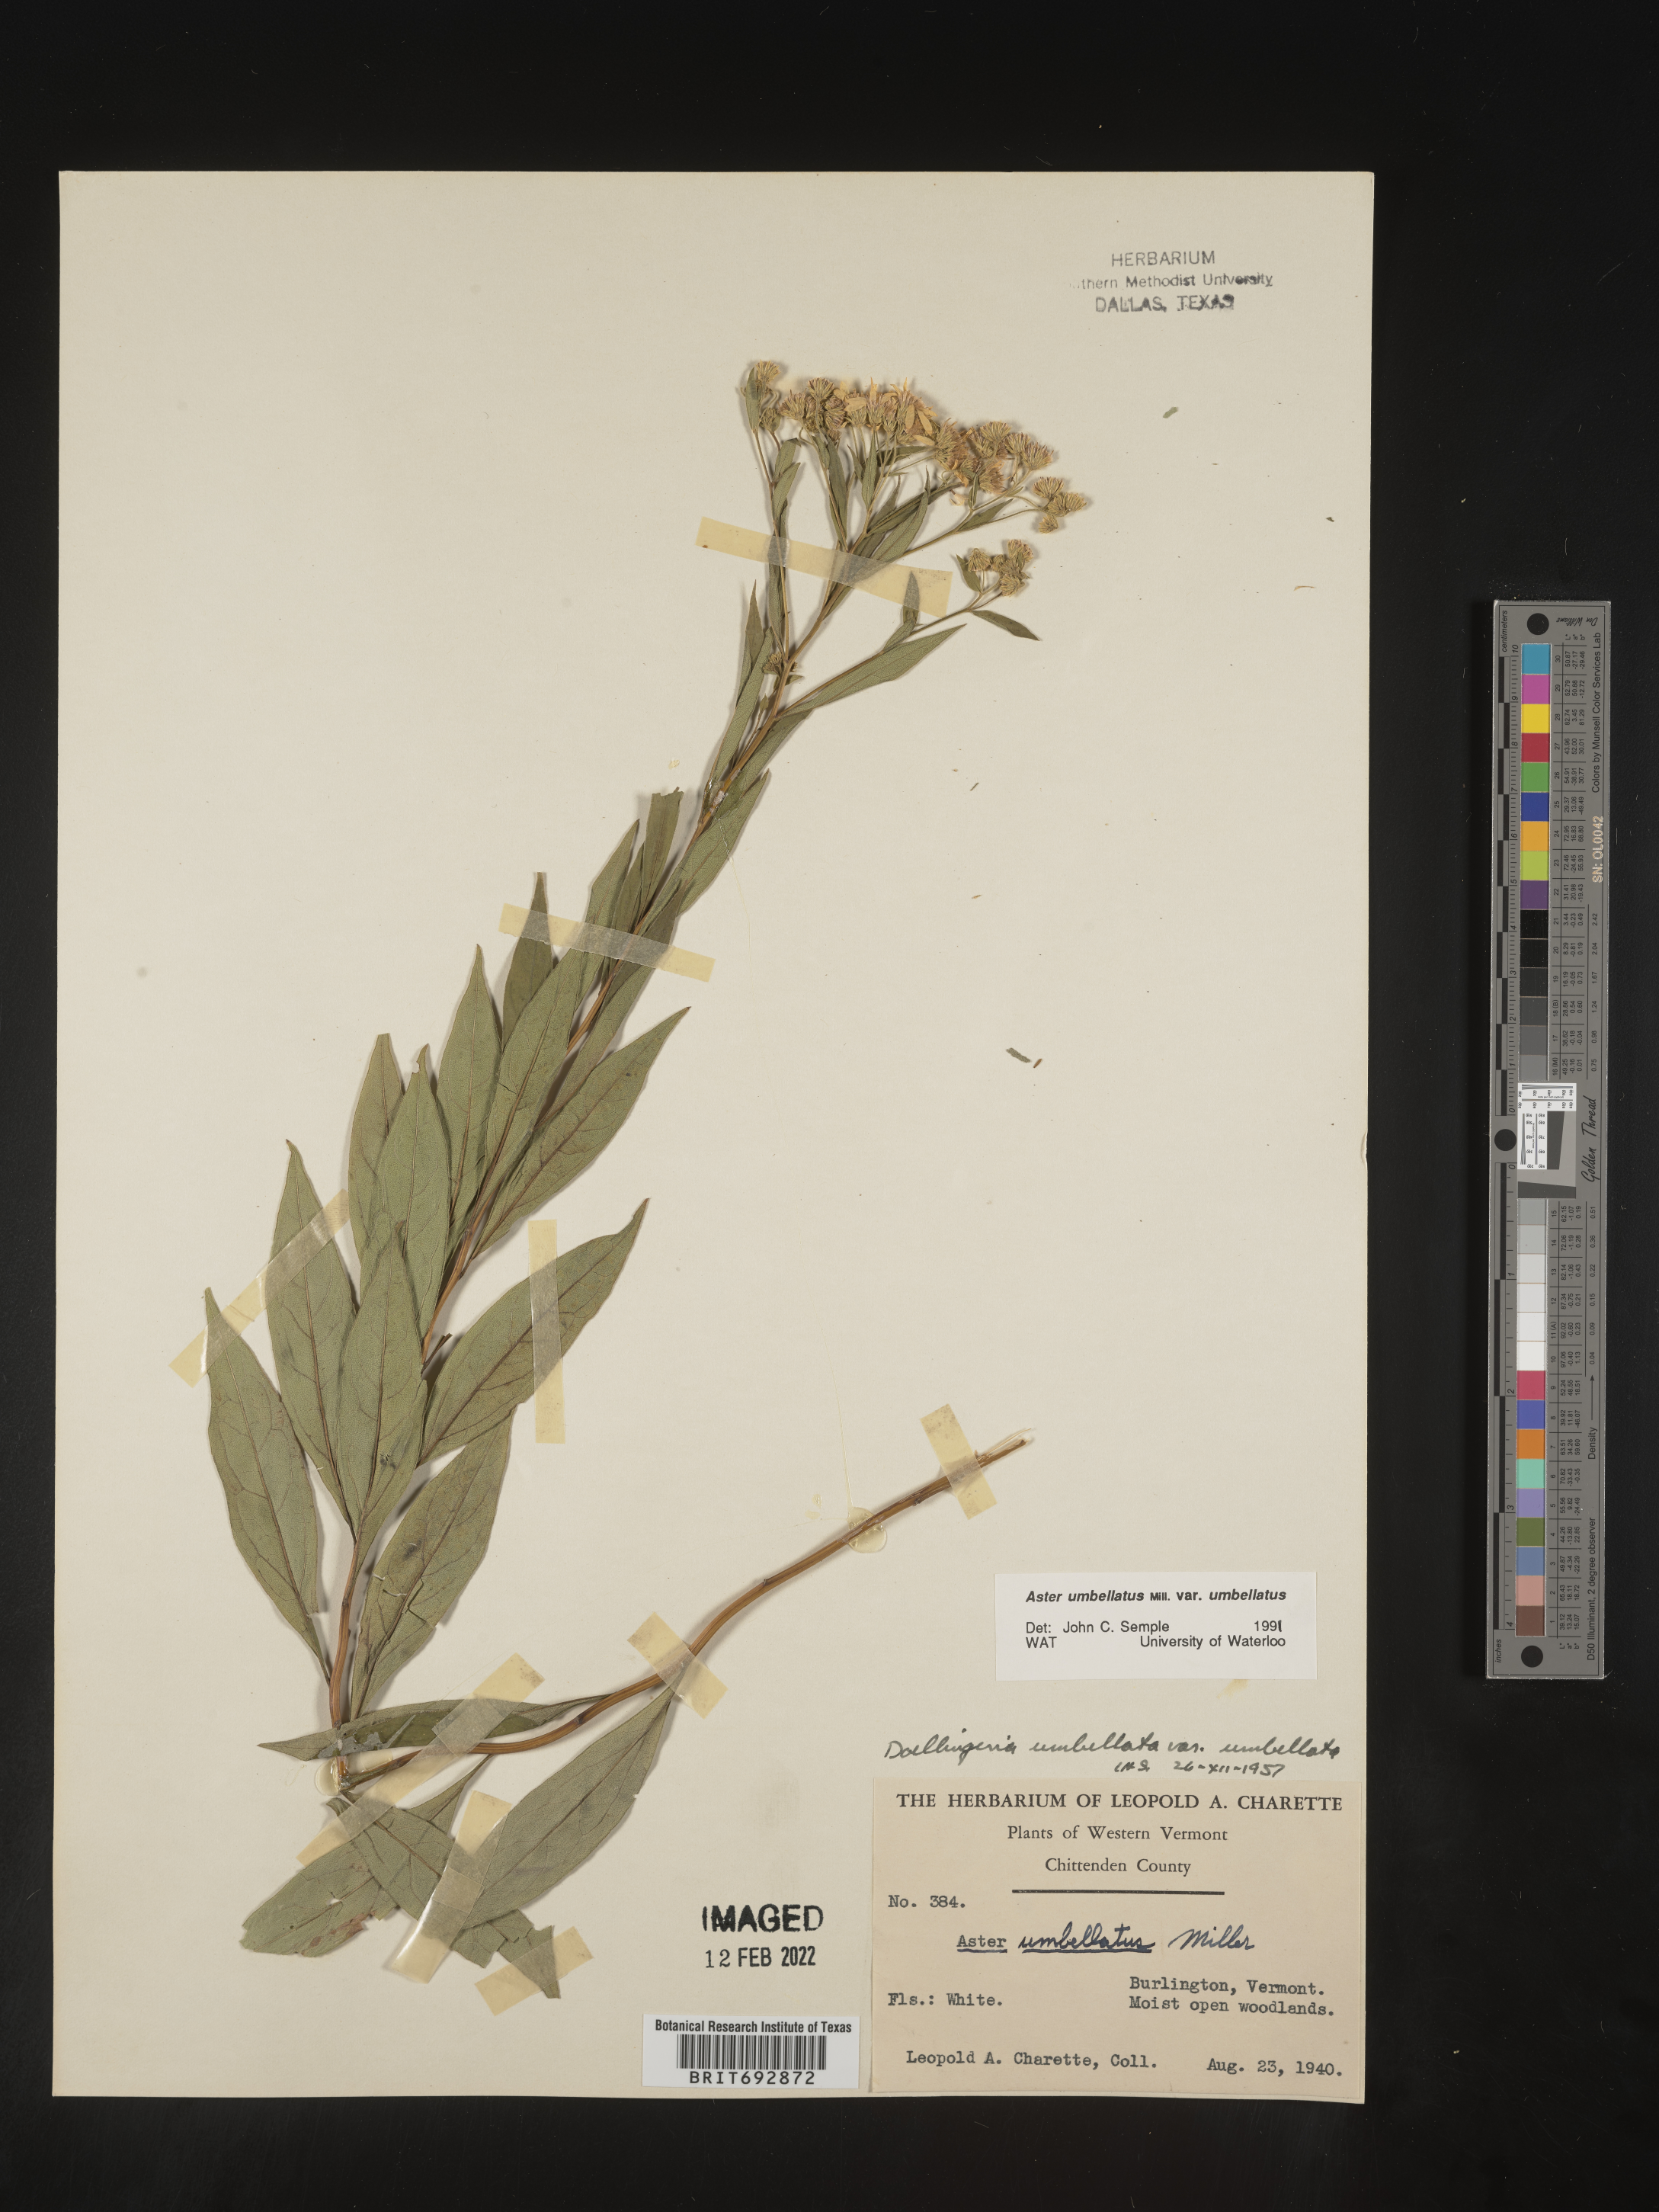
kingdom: Plantae
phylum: Tracheophyta
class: Magnoliopsida
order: Asterales
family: Asteraceae
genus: Doellingeria
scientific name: Doellingeria umbellata
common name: Flat-top white aster
